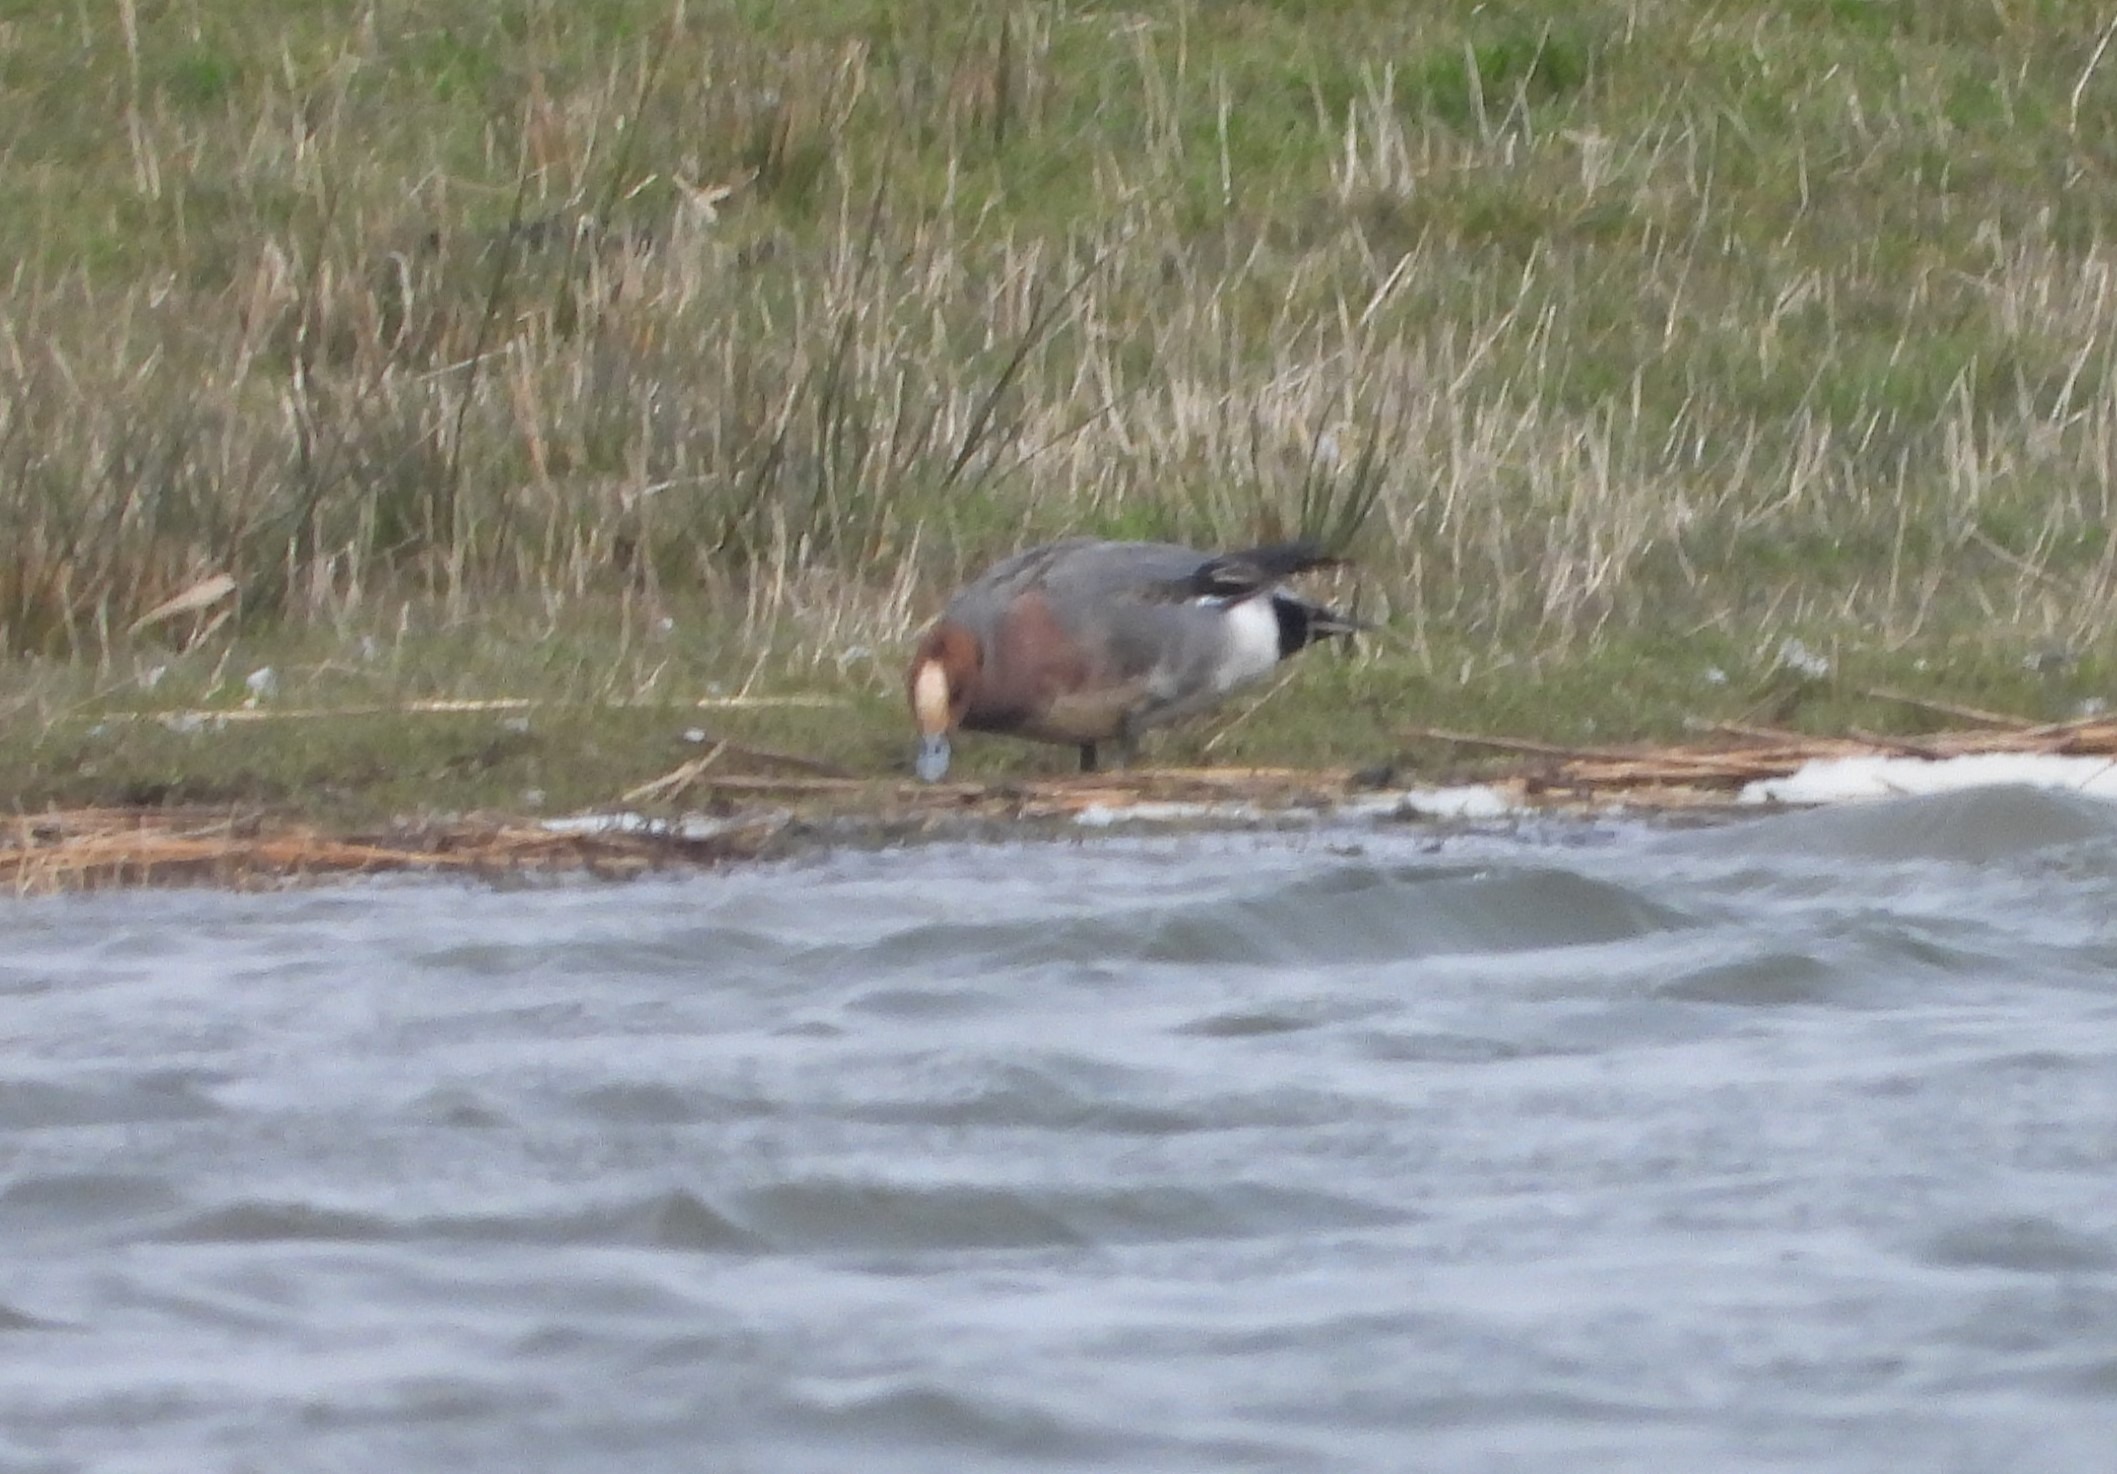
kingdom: Animalia
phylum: Chordata
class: Aves
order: Anseriformes
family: Anatidae
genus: Mareca
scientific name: Mareca penelope
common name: Pibeand
